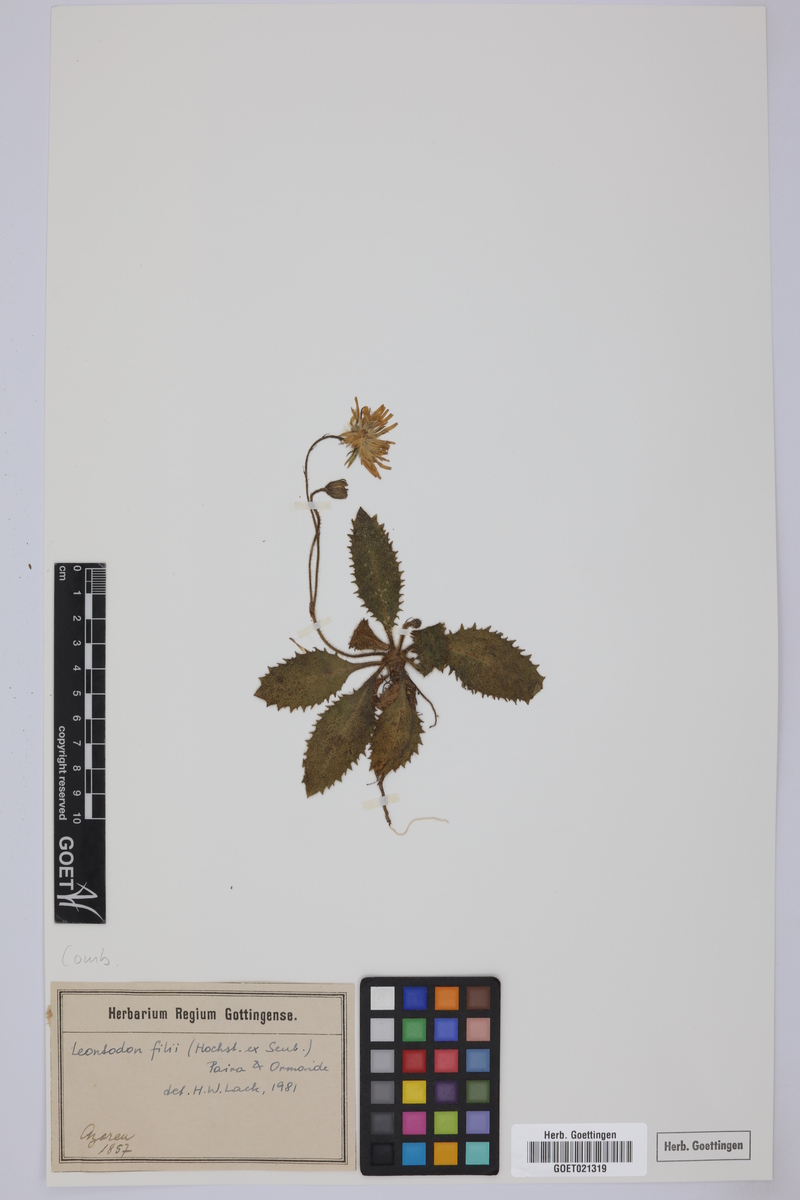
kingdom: Plantae
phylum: Tracheophyta
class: Magnoliopsida
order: Asterales
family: Asteraceae
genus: Leontodon
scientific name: Leontodon filii
